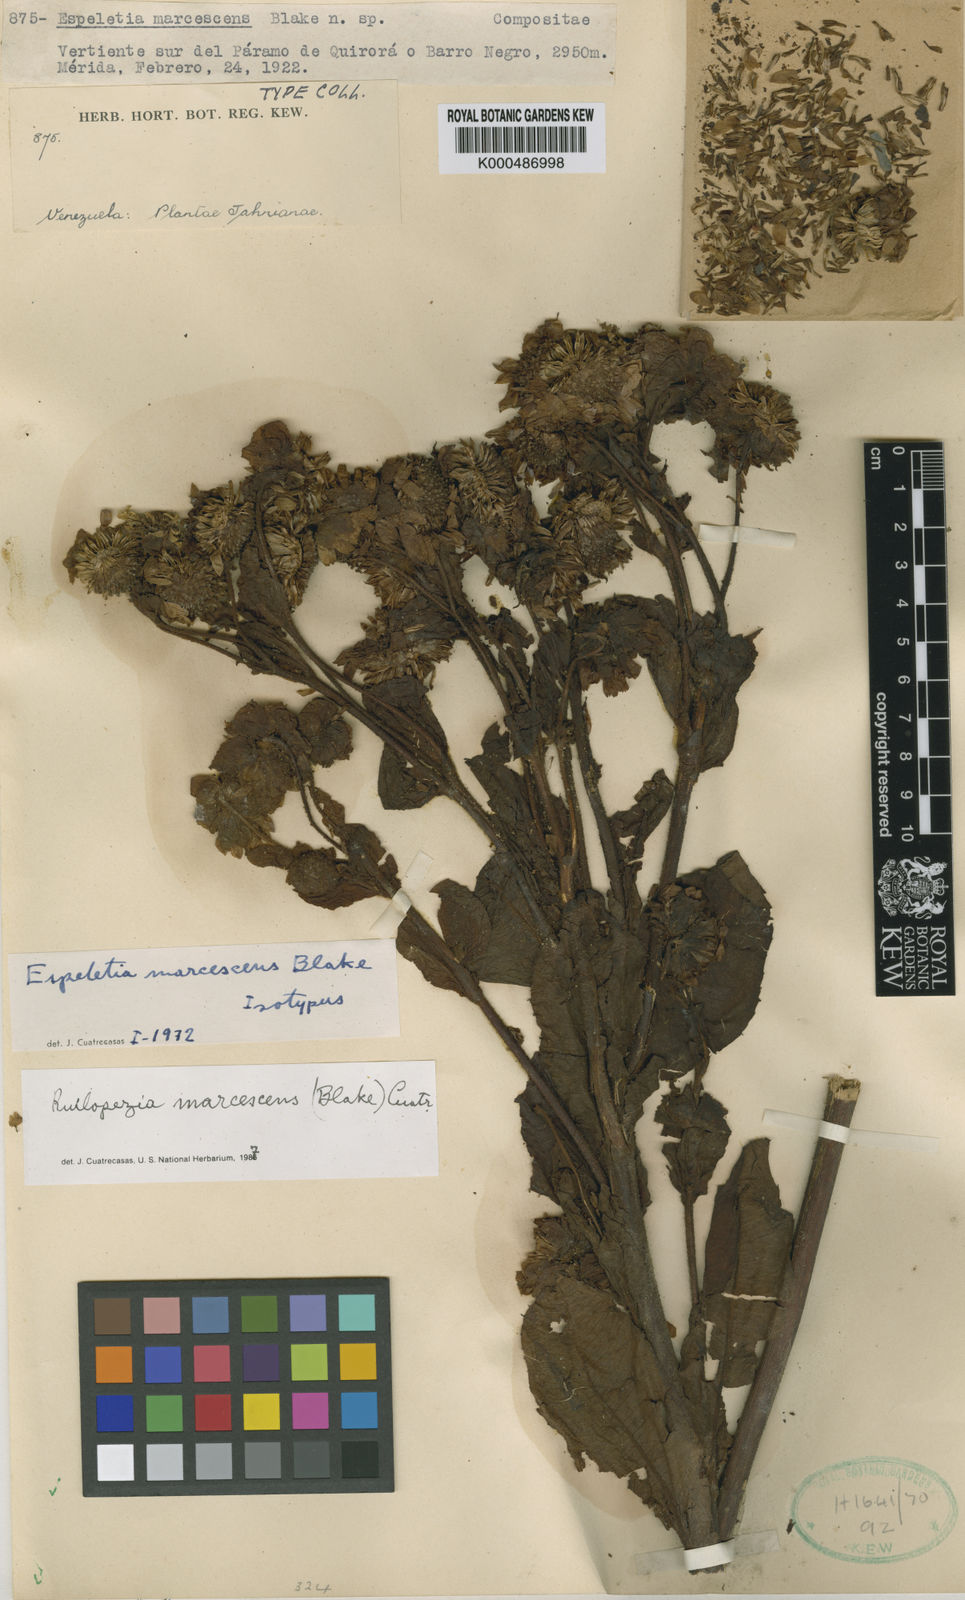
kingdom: Plantae
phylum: Tracheophyta
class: Magnoliopsida
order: Asterales
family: Asteraceae
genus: Espeletia
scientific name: Espeletia marcescens
